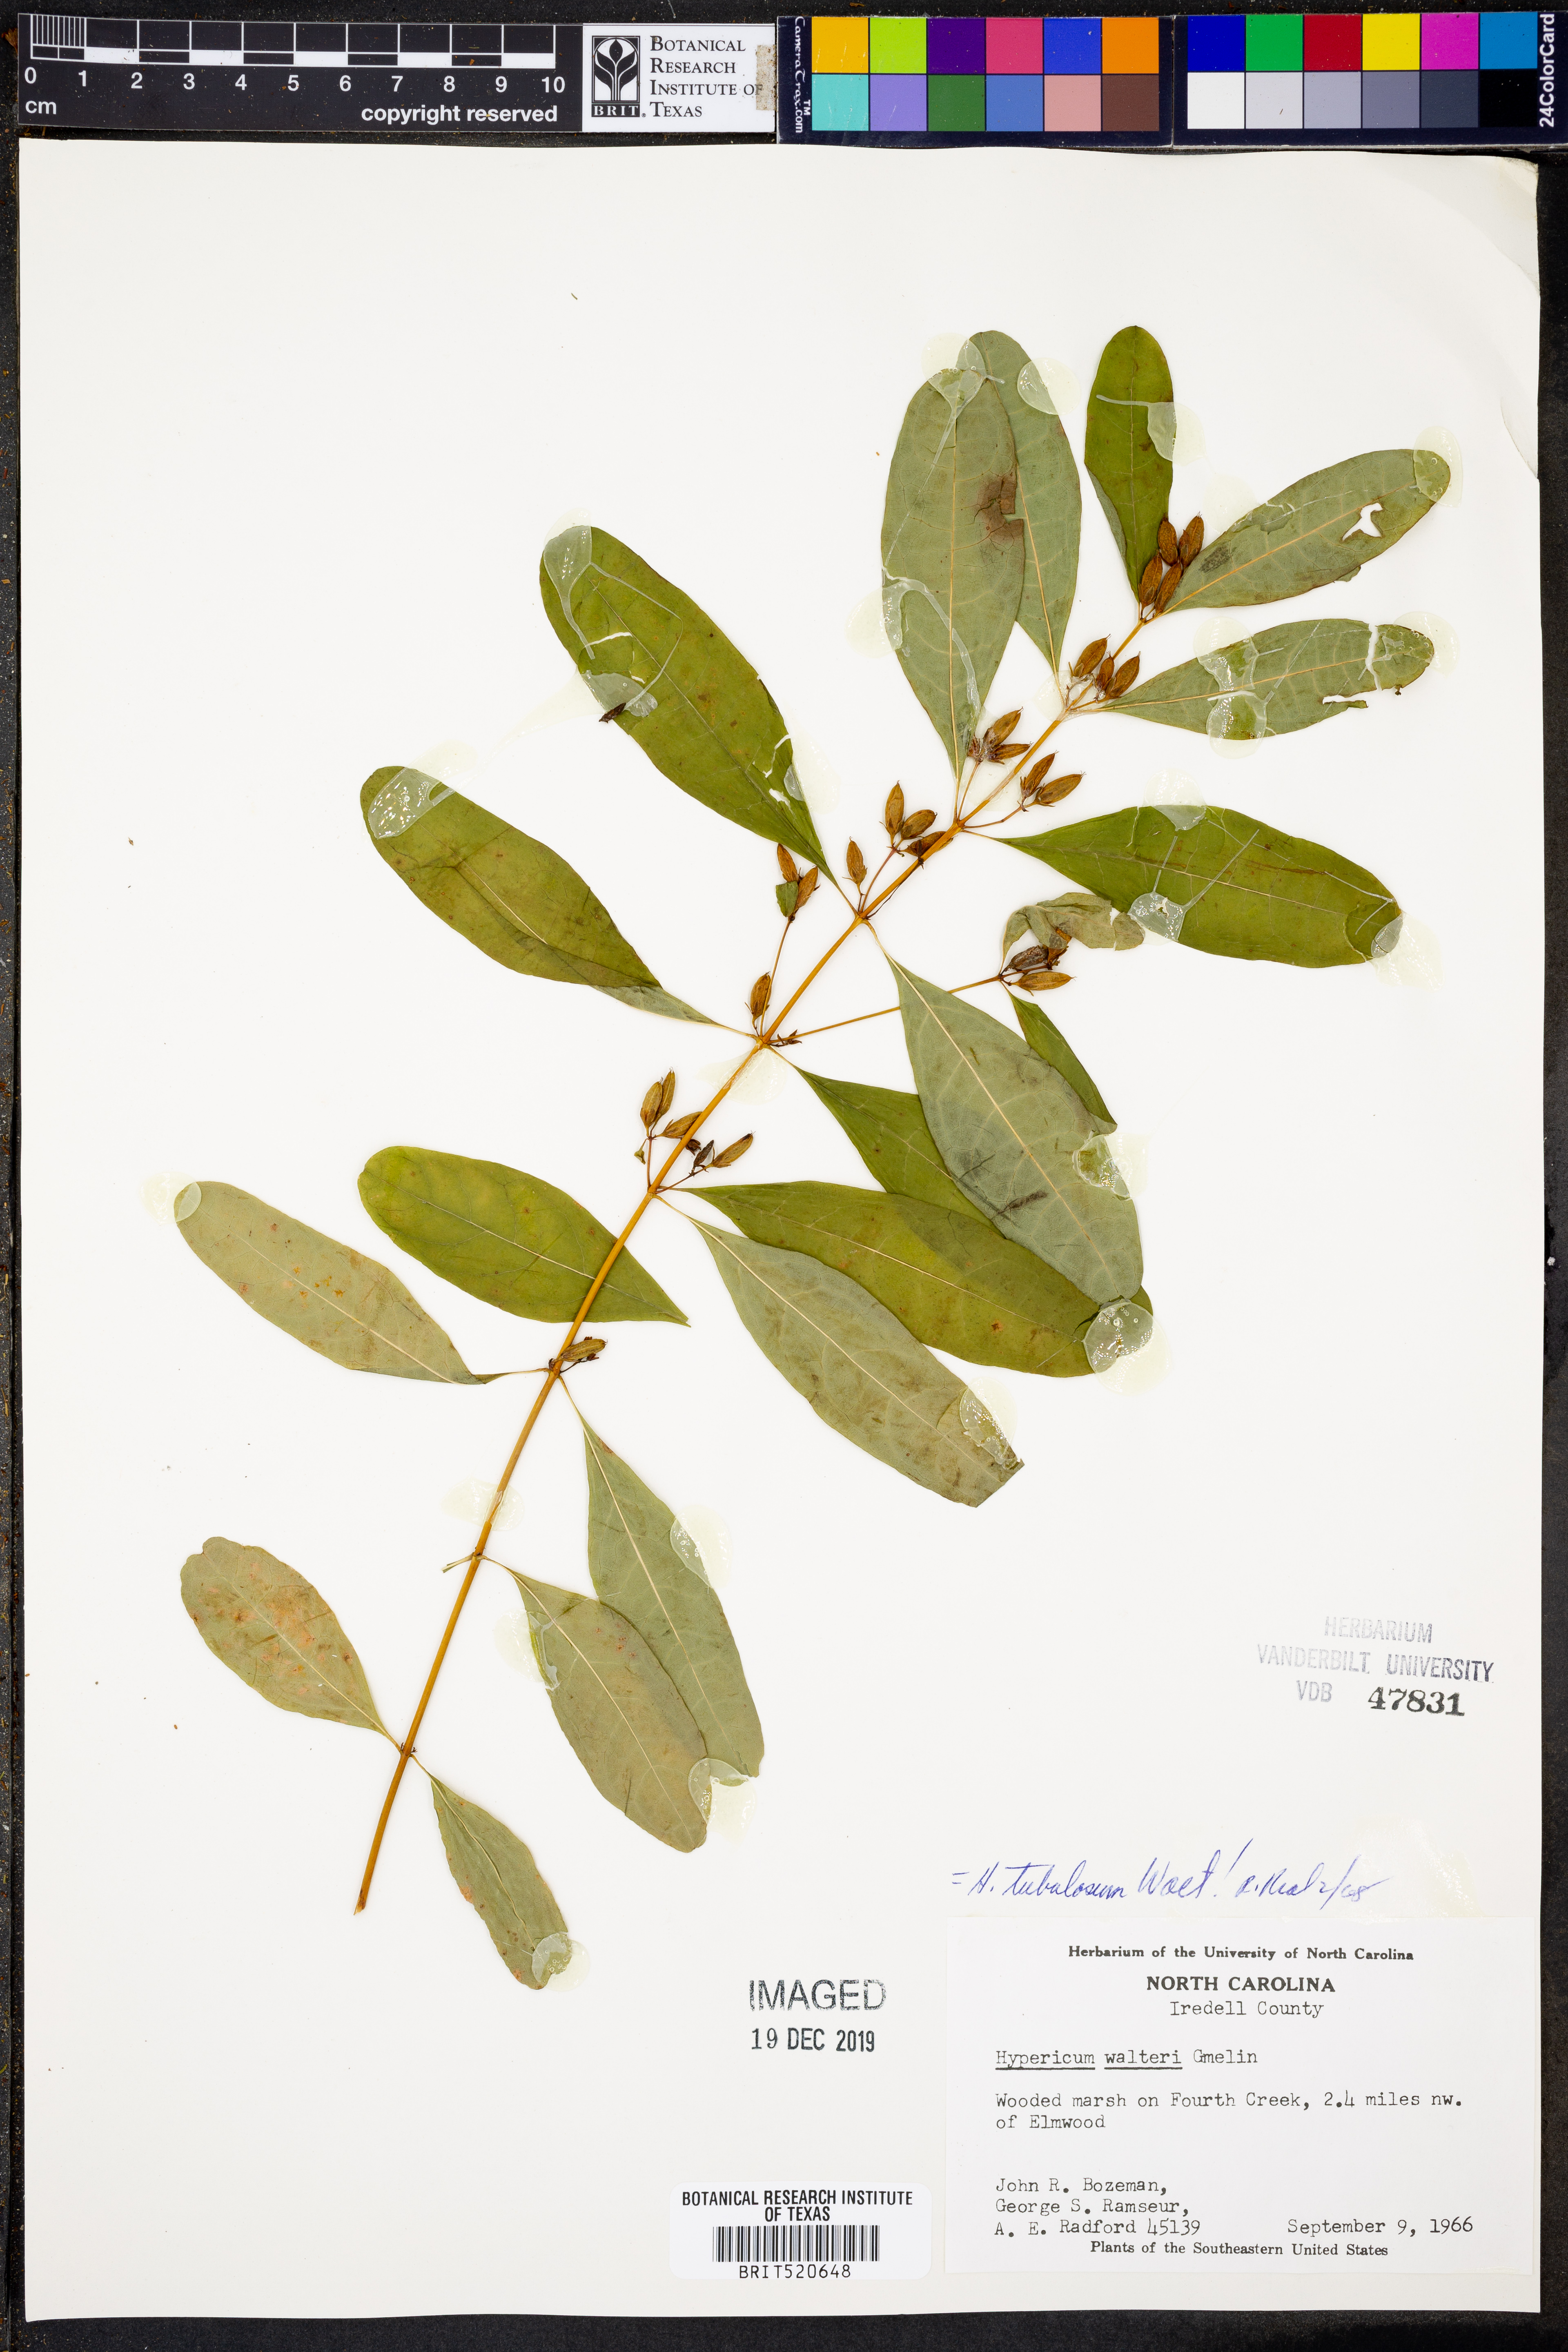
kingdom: Plantae
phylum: Tracheophyta
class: Magnoliopsida
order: Malpighiales
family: Hypericaceae
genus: Triadenum
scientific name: Triadenum tubulosum
